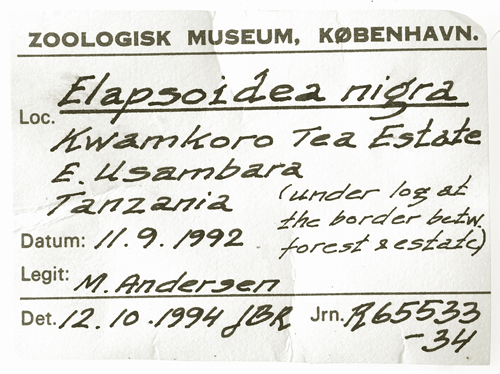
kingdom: Animalia
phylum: Chordata
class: Squamata
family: Elapidae
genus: Elapsoidea
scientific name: Elapsoidea nigra
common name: Black garter snake
